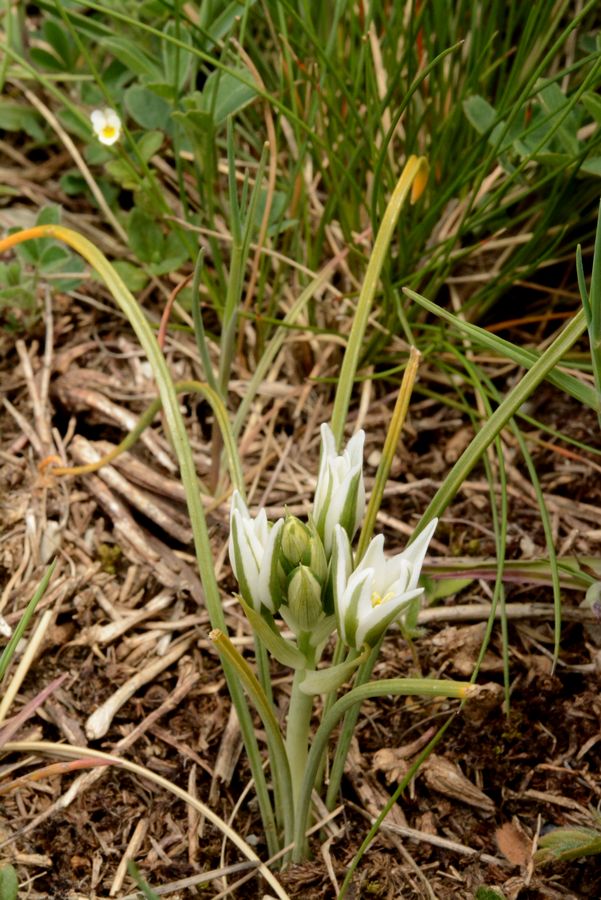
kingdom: Plantae
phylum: Tracheophyta
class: Liliopsida
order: Asparagales
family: Asparagaceae
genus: Ornithogalum
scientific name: Ornithogalum orthophyllum
